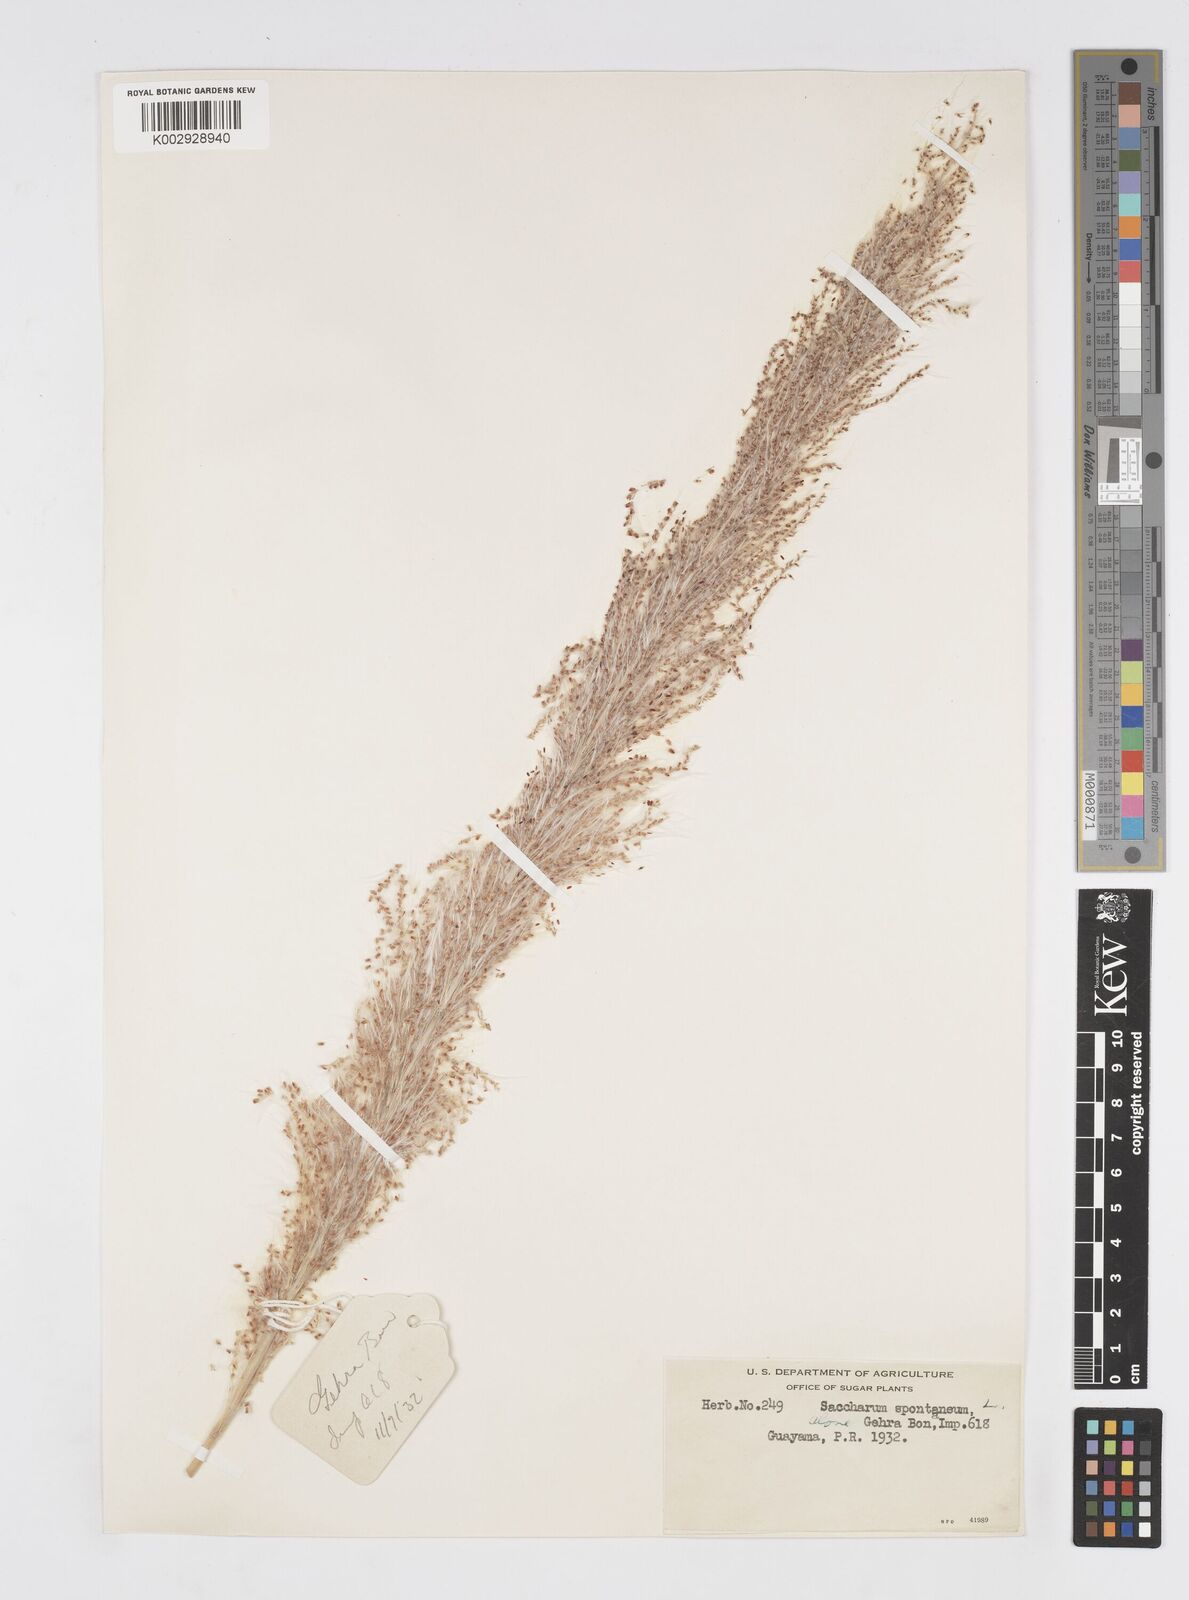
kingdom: Plantae
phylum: Tracheophyta
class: Liliopsida
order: Poales
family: Poaceae
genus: Saccharum
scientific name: Saccharum spontaneum
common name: Wild sugarcane
